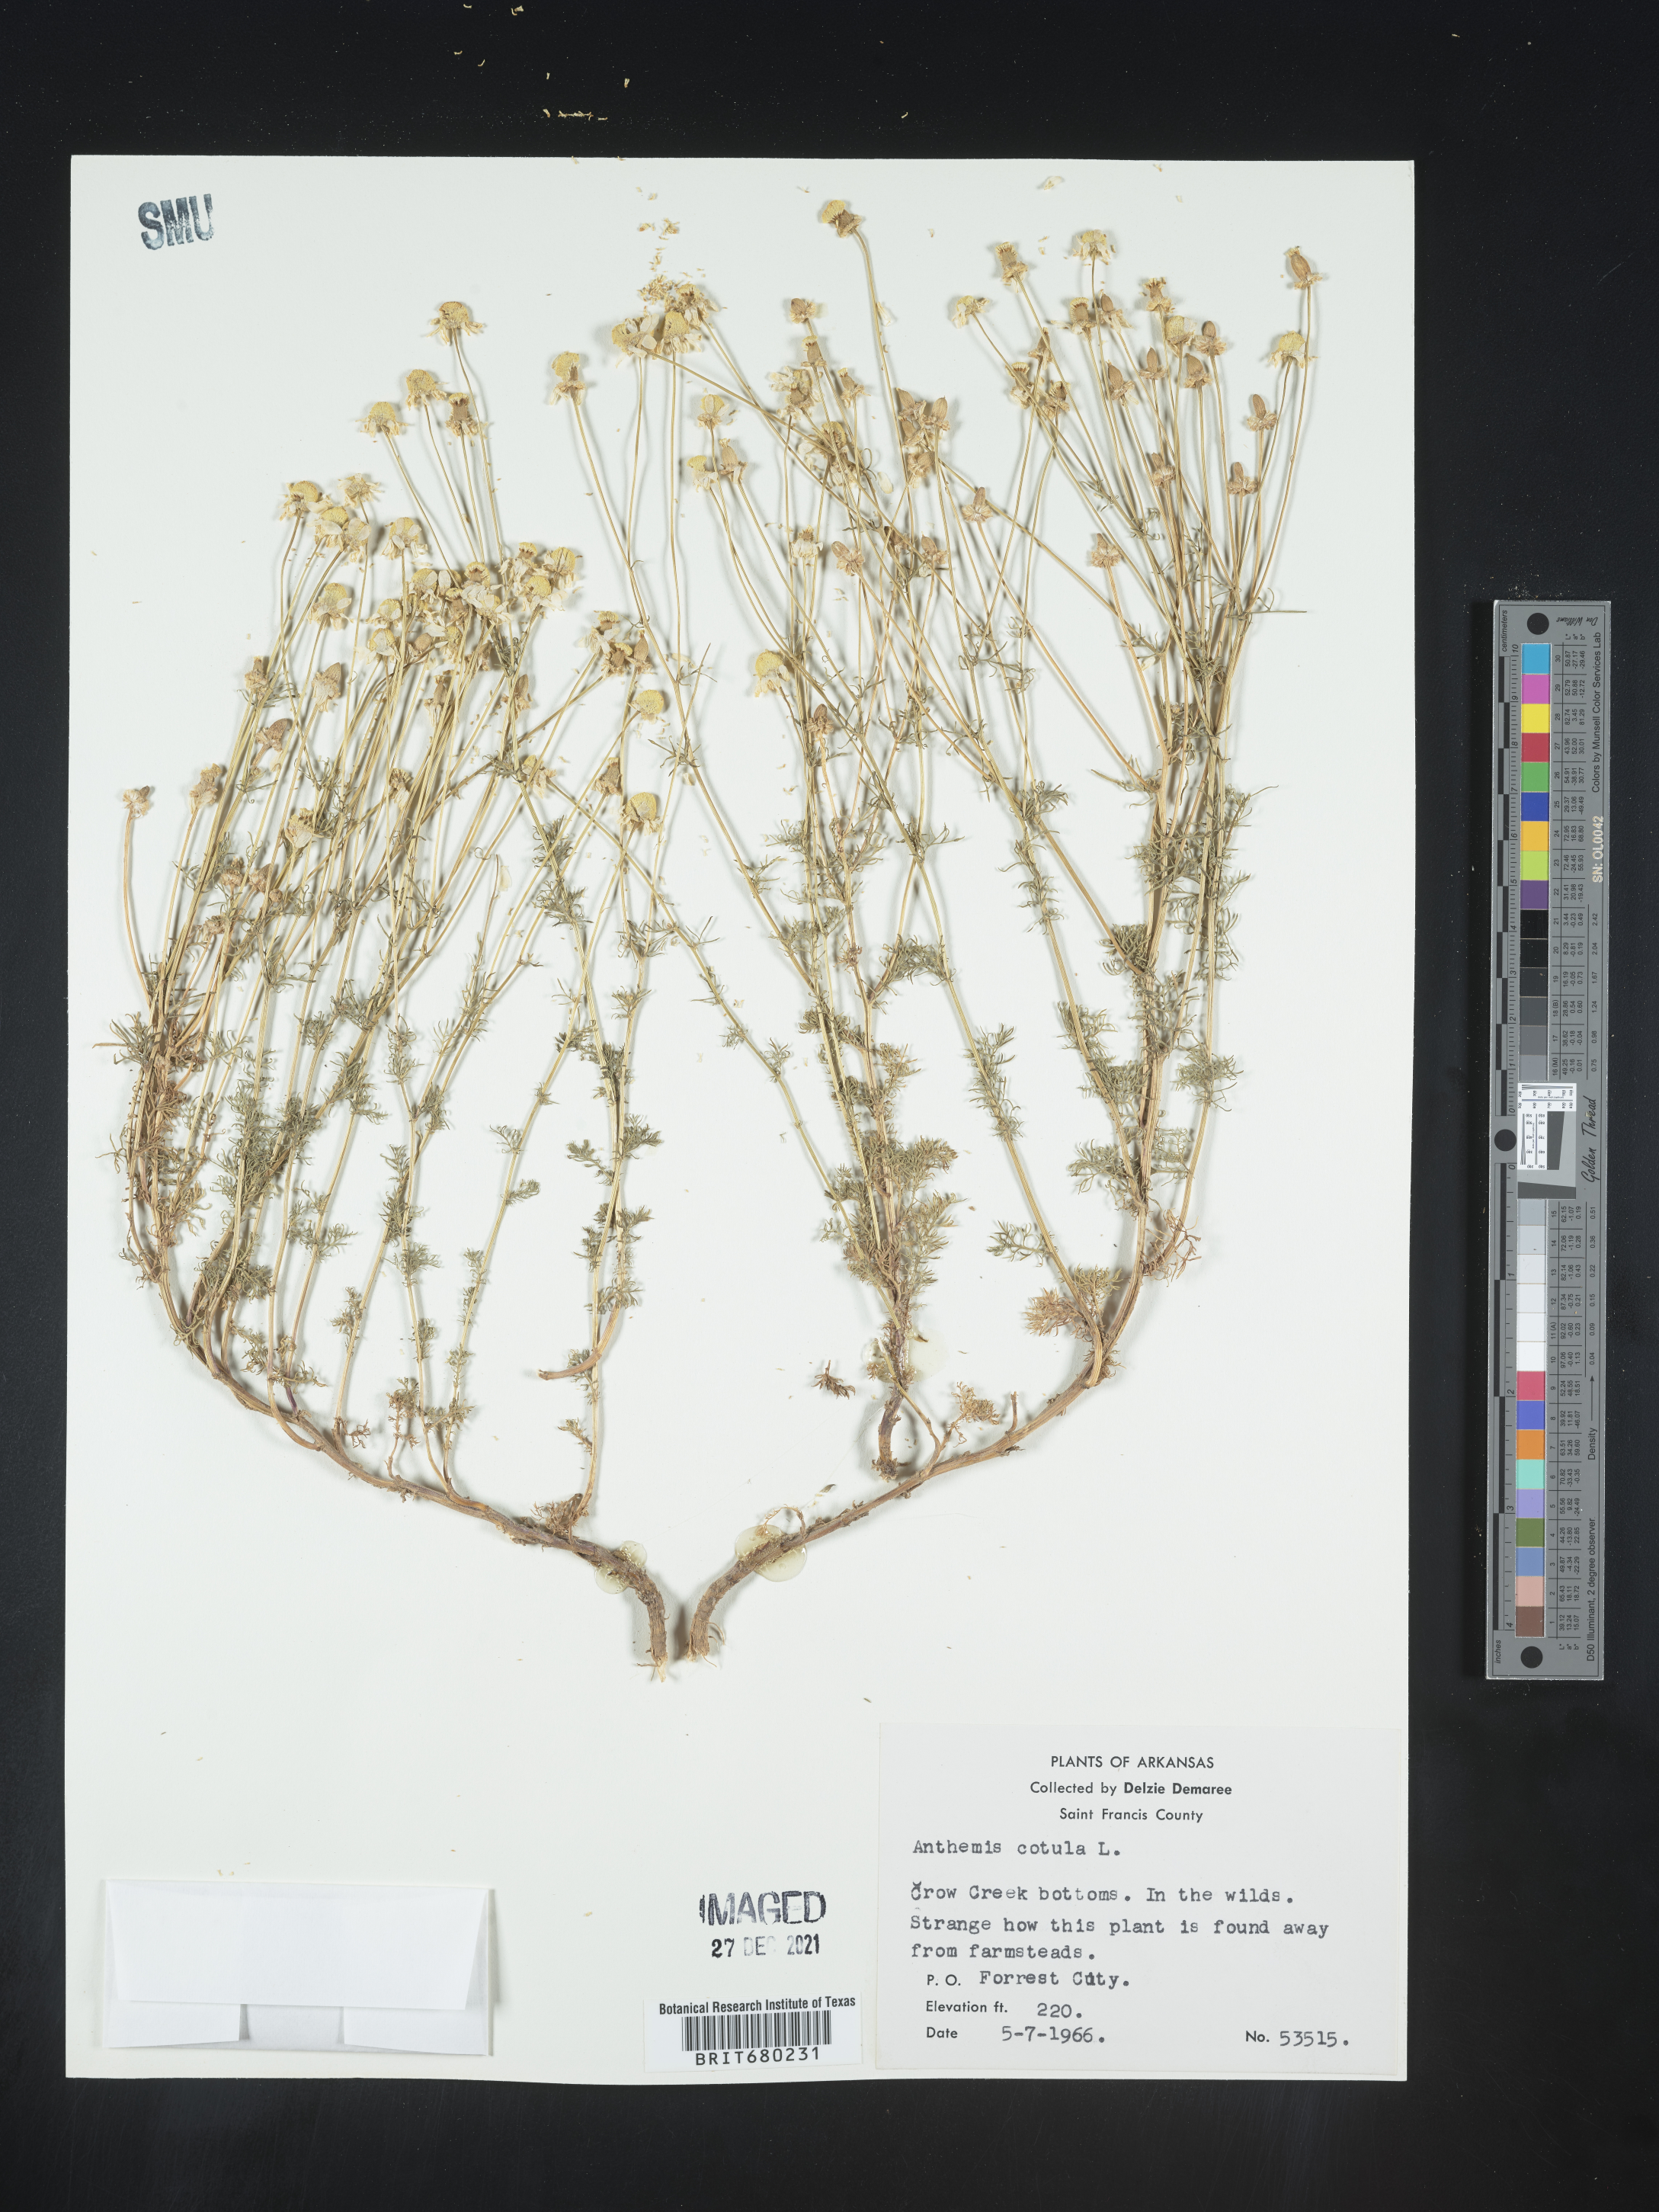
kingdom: Plantae
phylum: Tracheophyta
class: Magnoliopsida
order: Asterales
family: Asteraceae
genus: Anthemis
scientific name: Anthemis cotula
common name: Stinking chamomile
